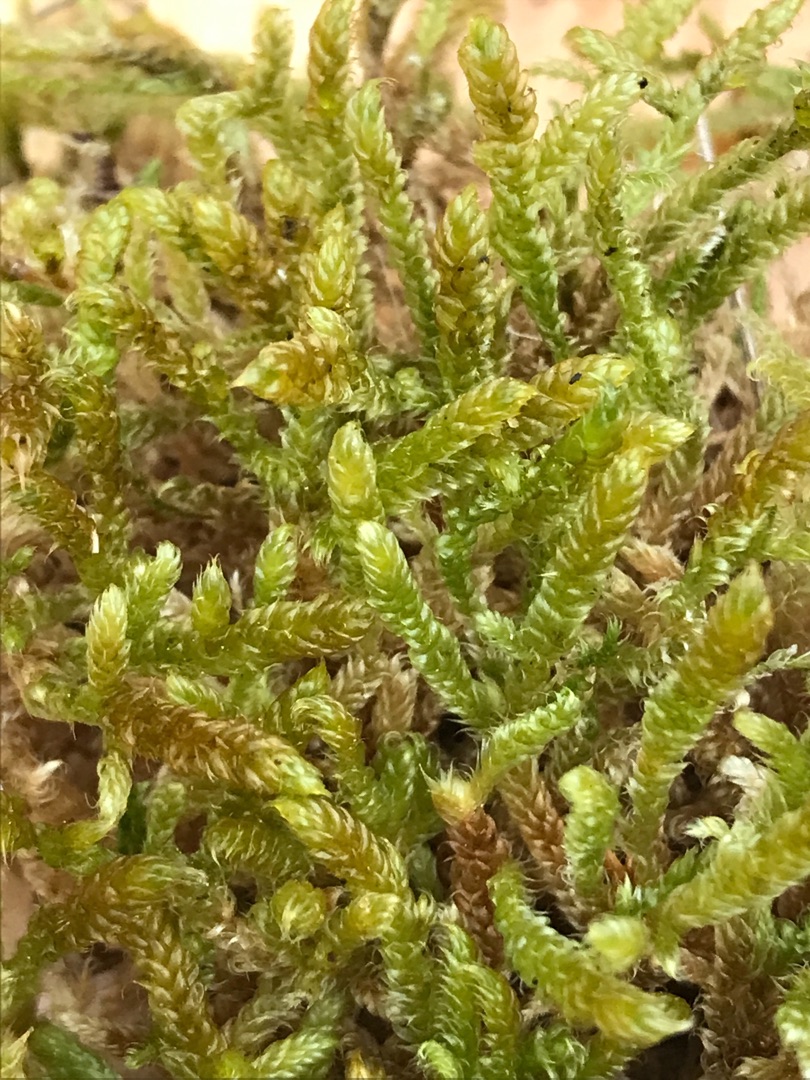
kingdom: Plantae
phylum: Bryophyta
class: Bryopsida
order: Hypnales
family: Hypnaceae
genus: Hypnum
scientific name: Hypnum cupressiforme
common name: Almindelig cypresmos
